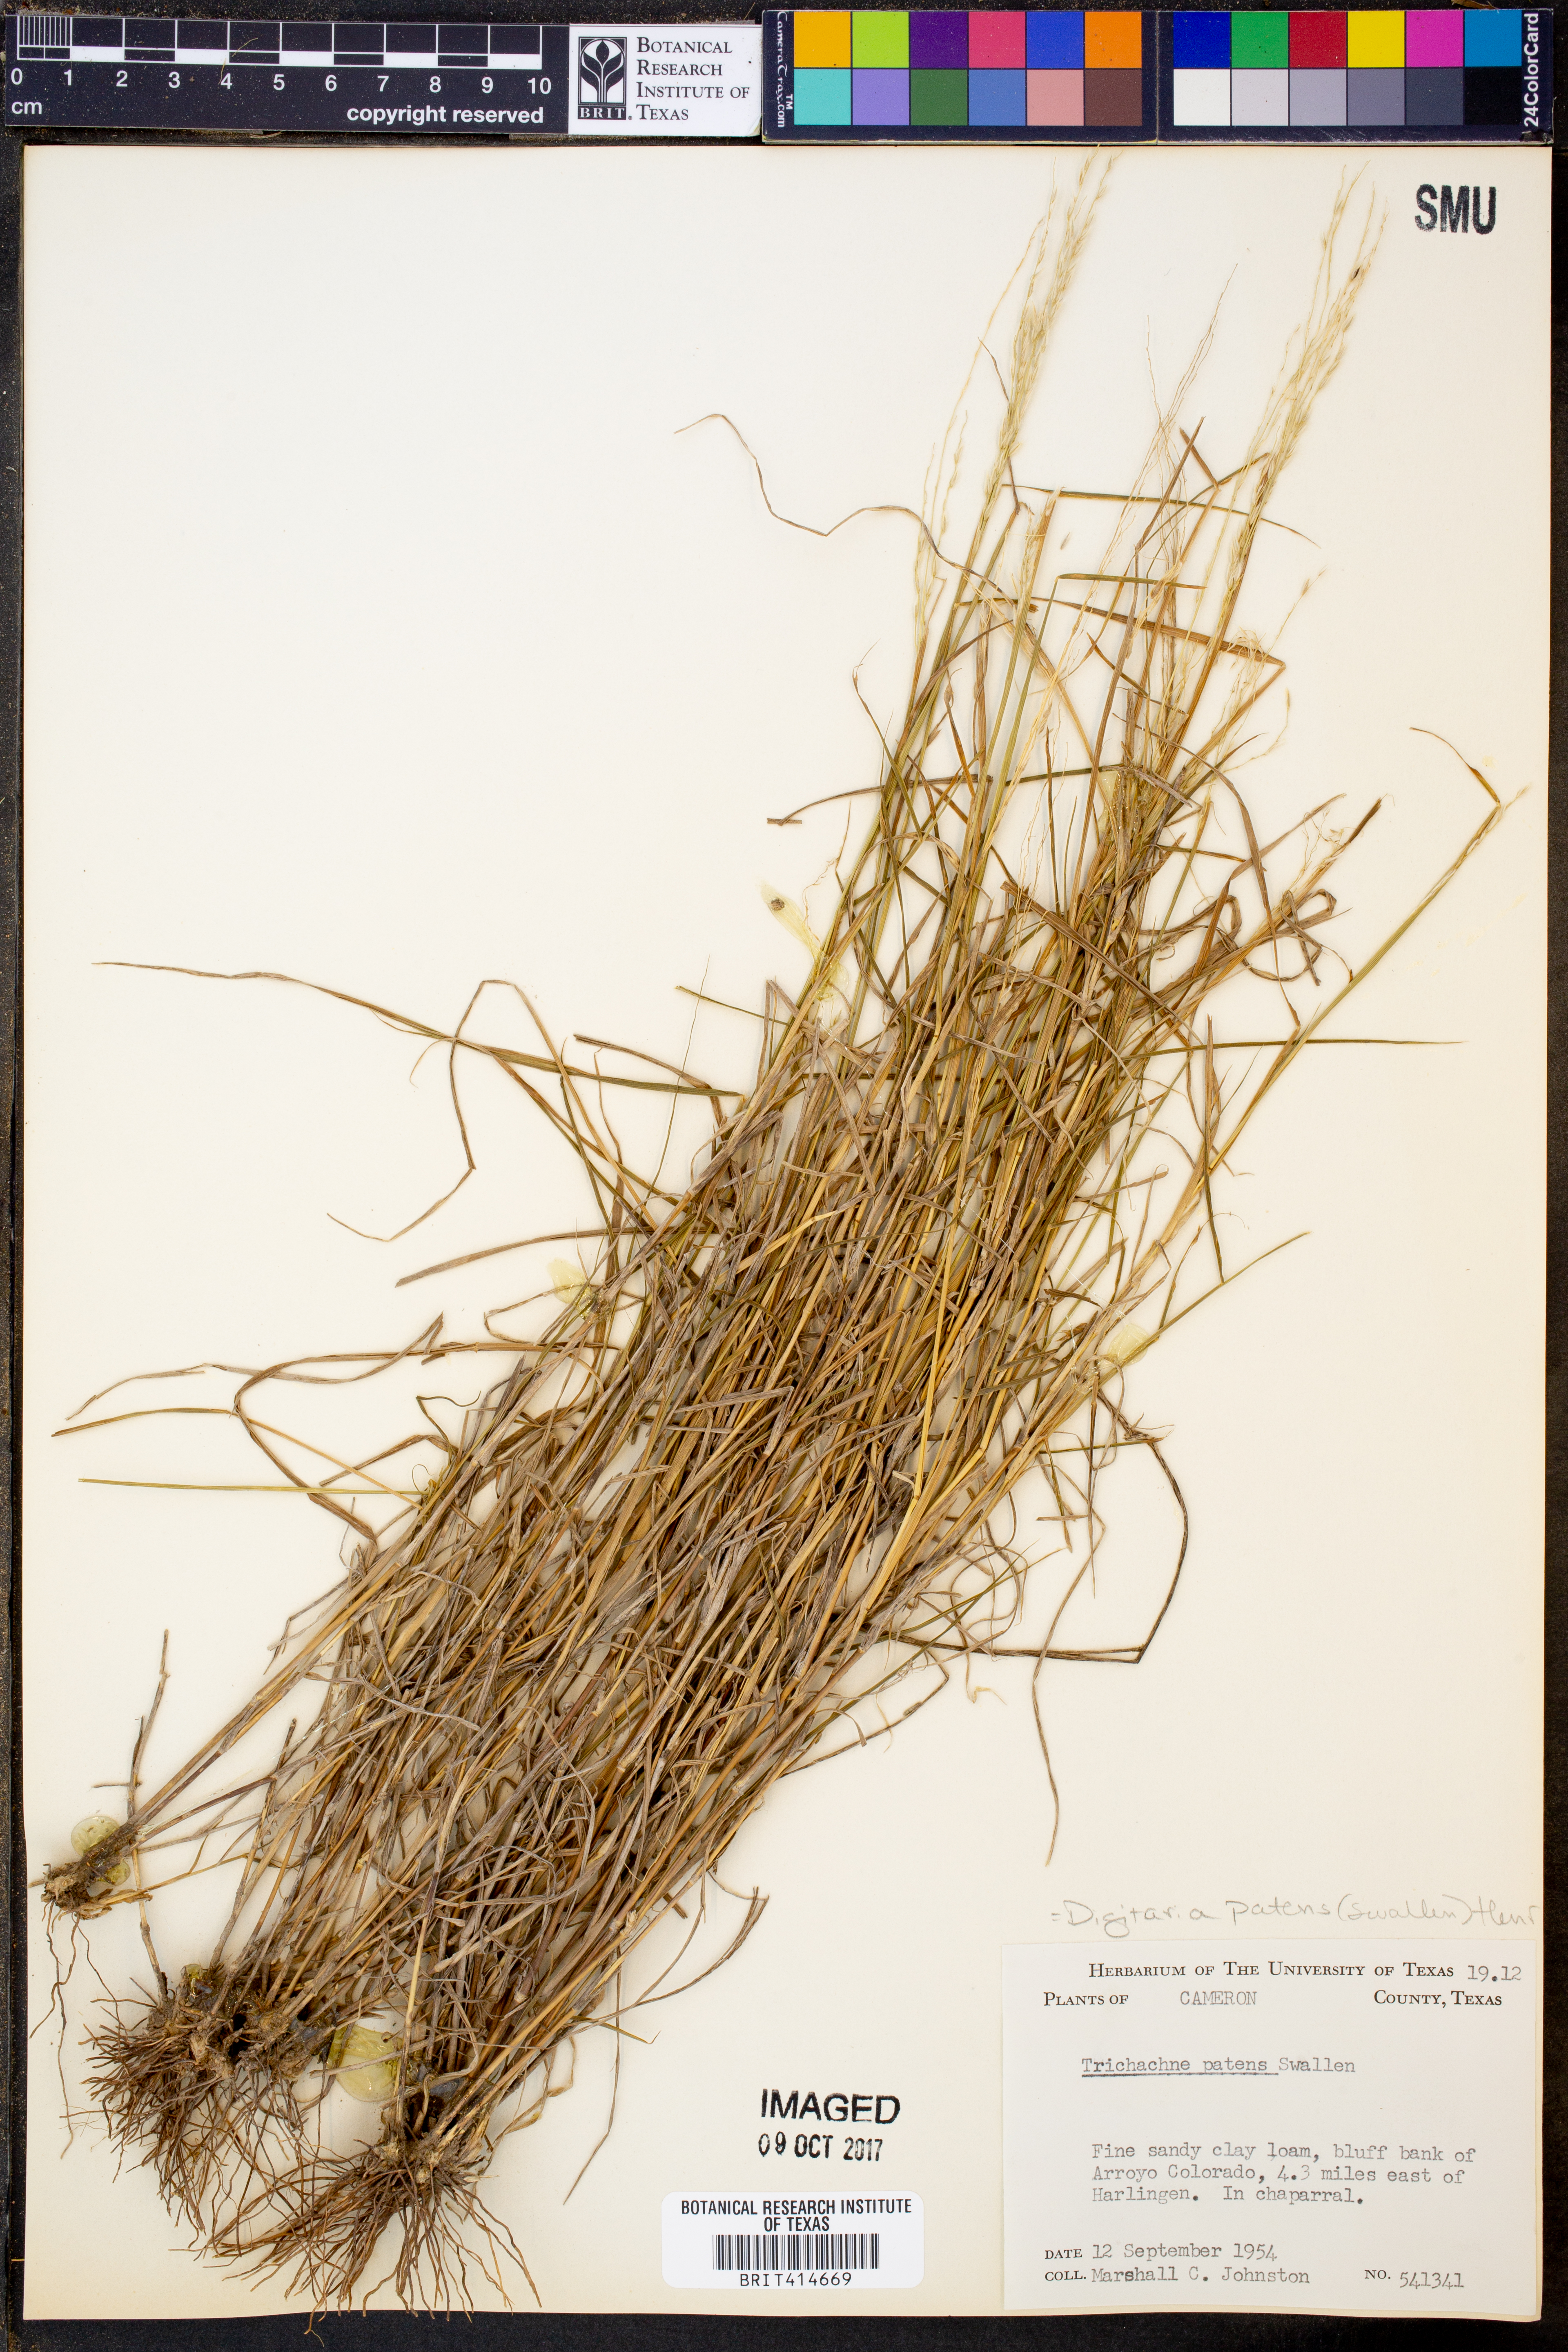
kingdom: Plantae
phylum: Tracheophyta
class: Liliopsida
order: Poales
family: Poaceae
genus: Digitaria
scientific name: Digitaria patens
